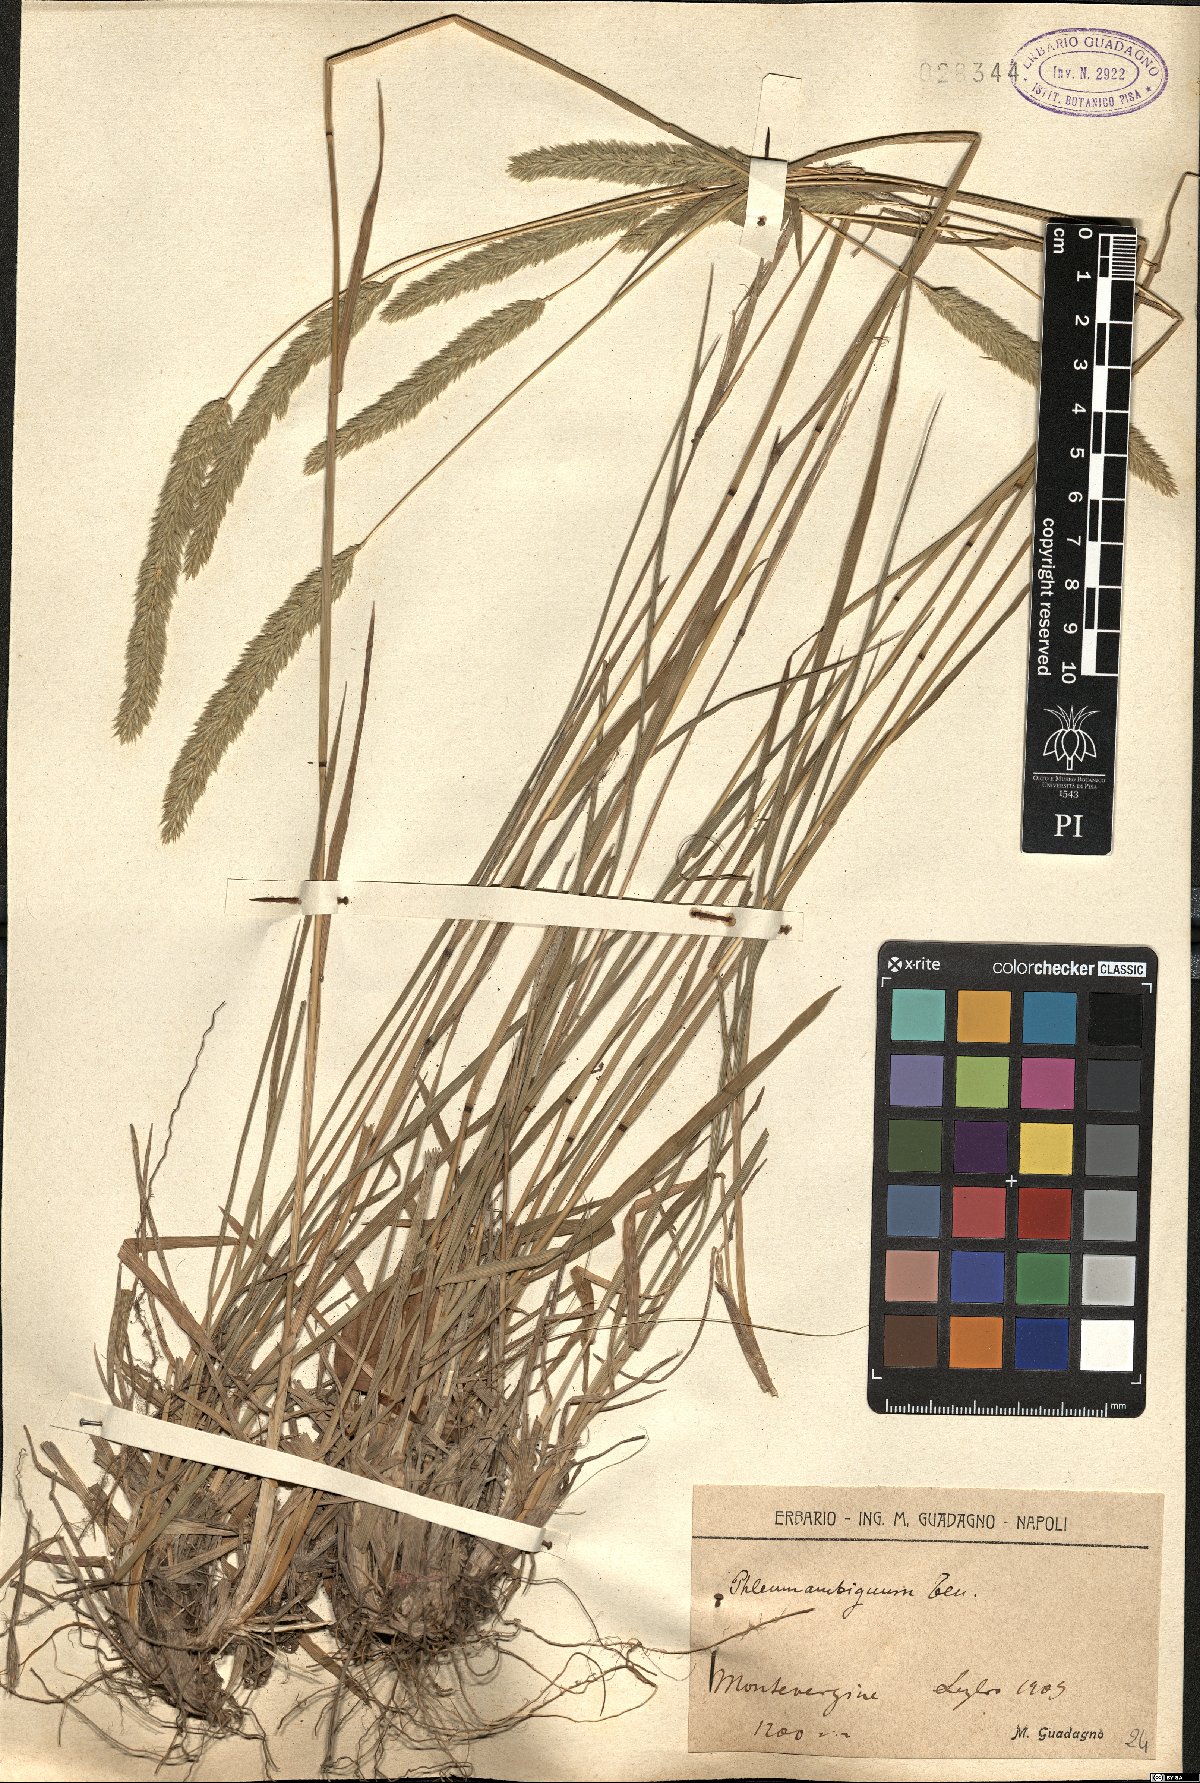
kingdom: Plantae
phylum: Tracheophyta
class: Liliopsida
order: Poales
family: Poaceae
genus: Phleum
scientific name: Phleum hirsutum
